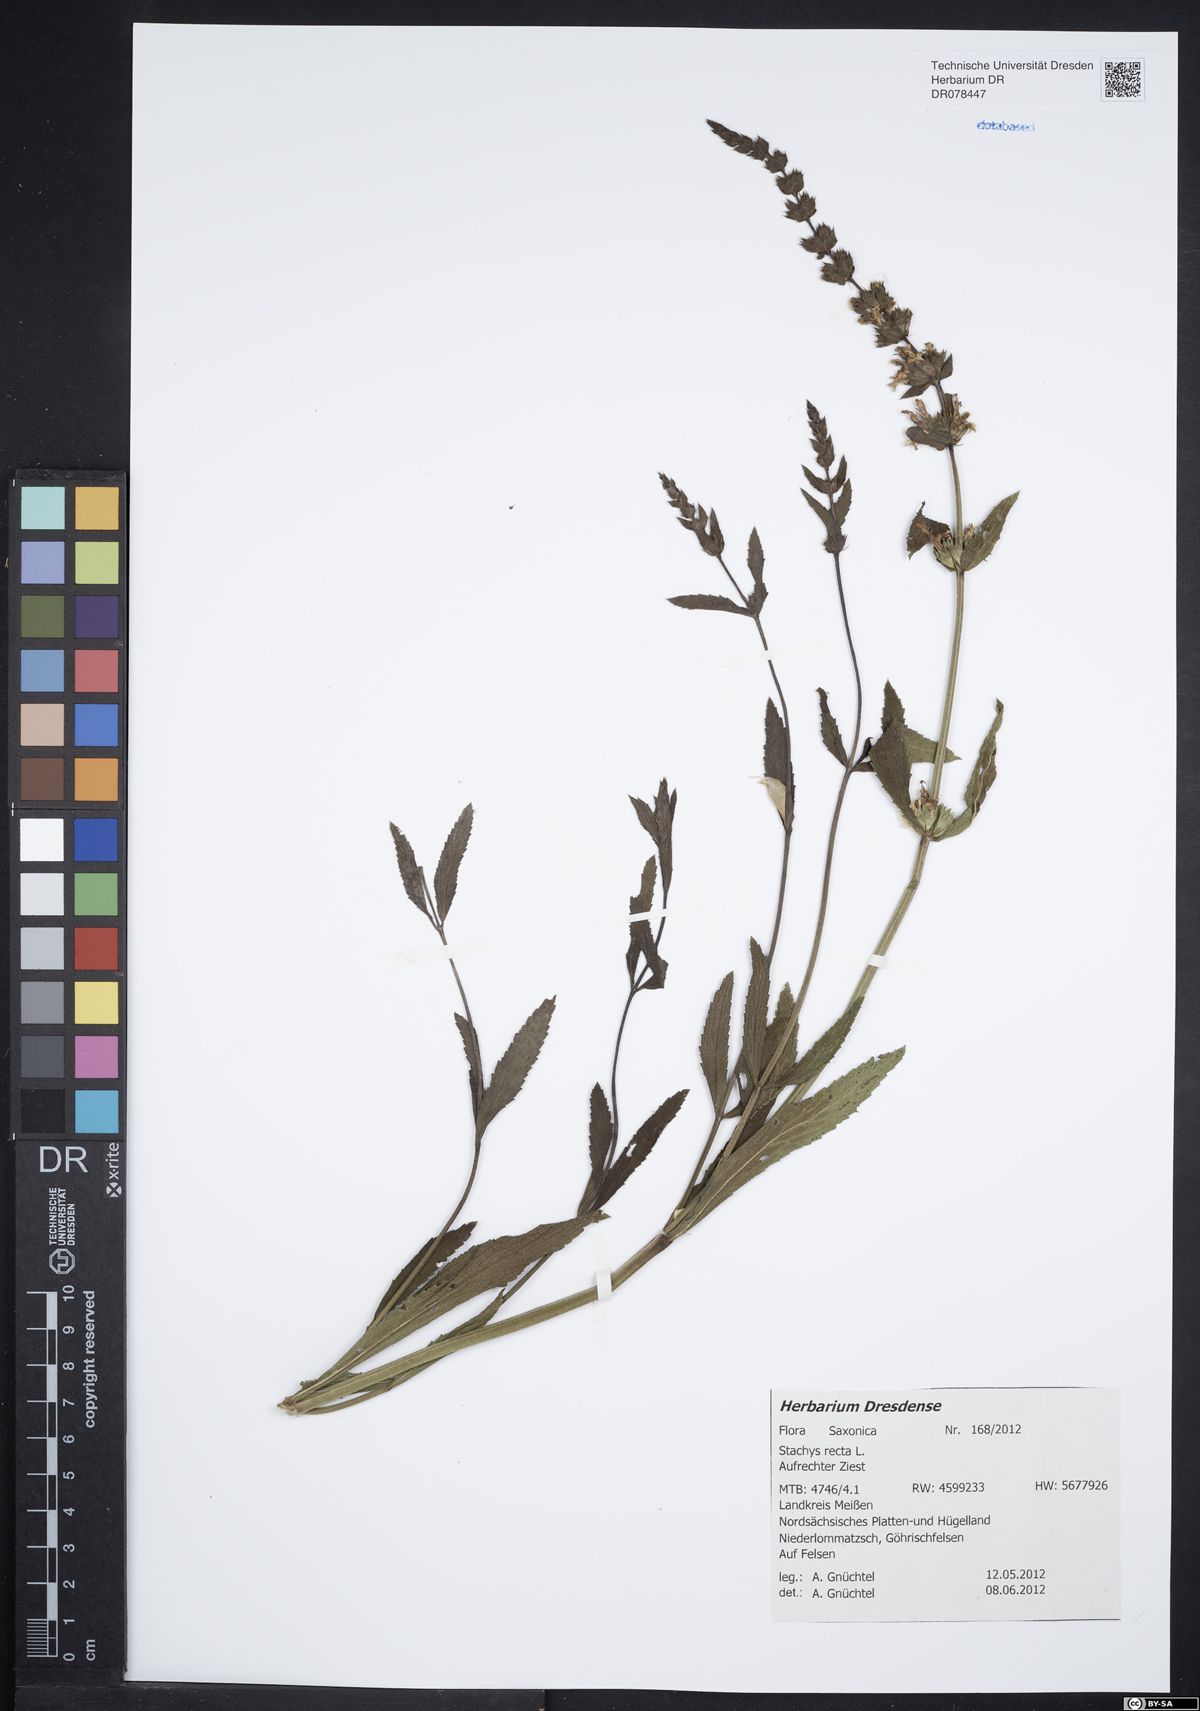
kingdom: Plantae
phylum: Tracheophyta
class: Magnoliopsida
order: Lamiales
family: Lamiaceae
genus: Stachys
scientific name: Stachys recta
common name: Perennial yellow-woundwort
